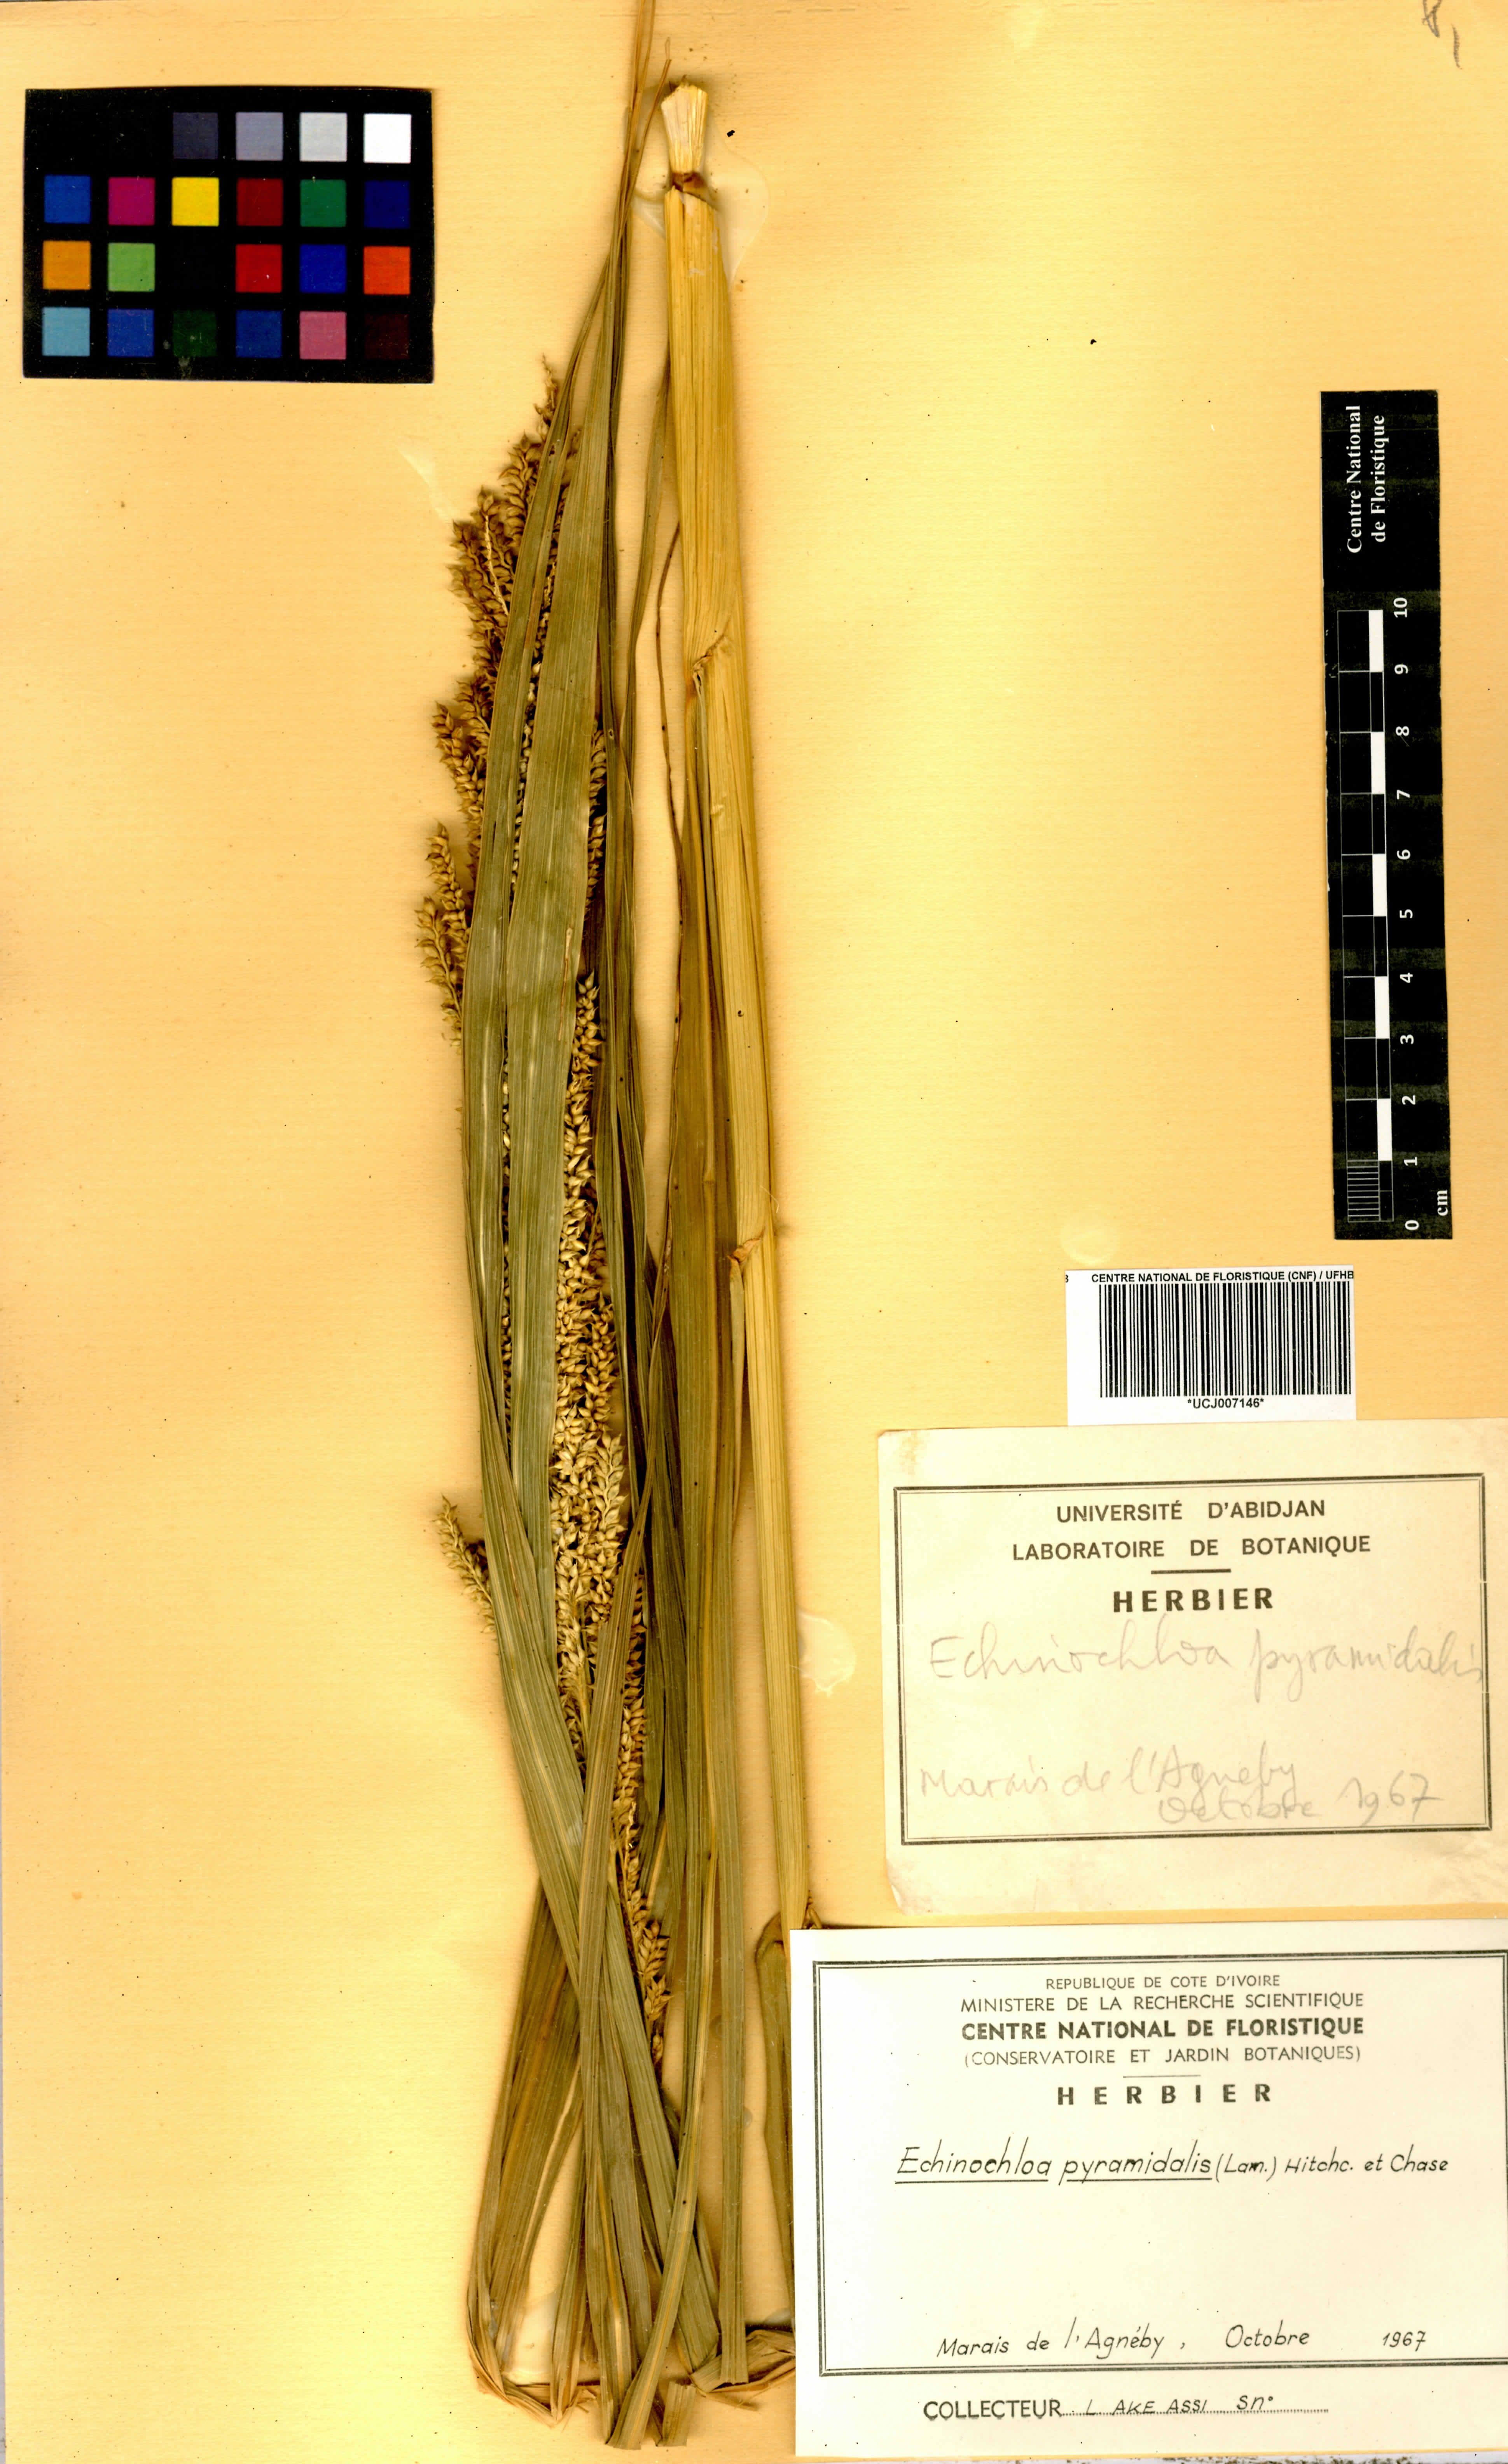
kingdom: Plantae
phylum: Tracheophyta
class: Liliopsida
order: Poales
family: Poaceae
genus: Echinochloa
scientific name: Echinochloa pyramidalis
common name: Antelope grass
